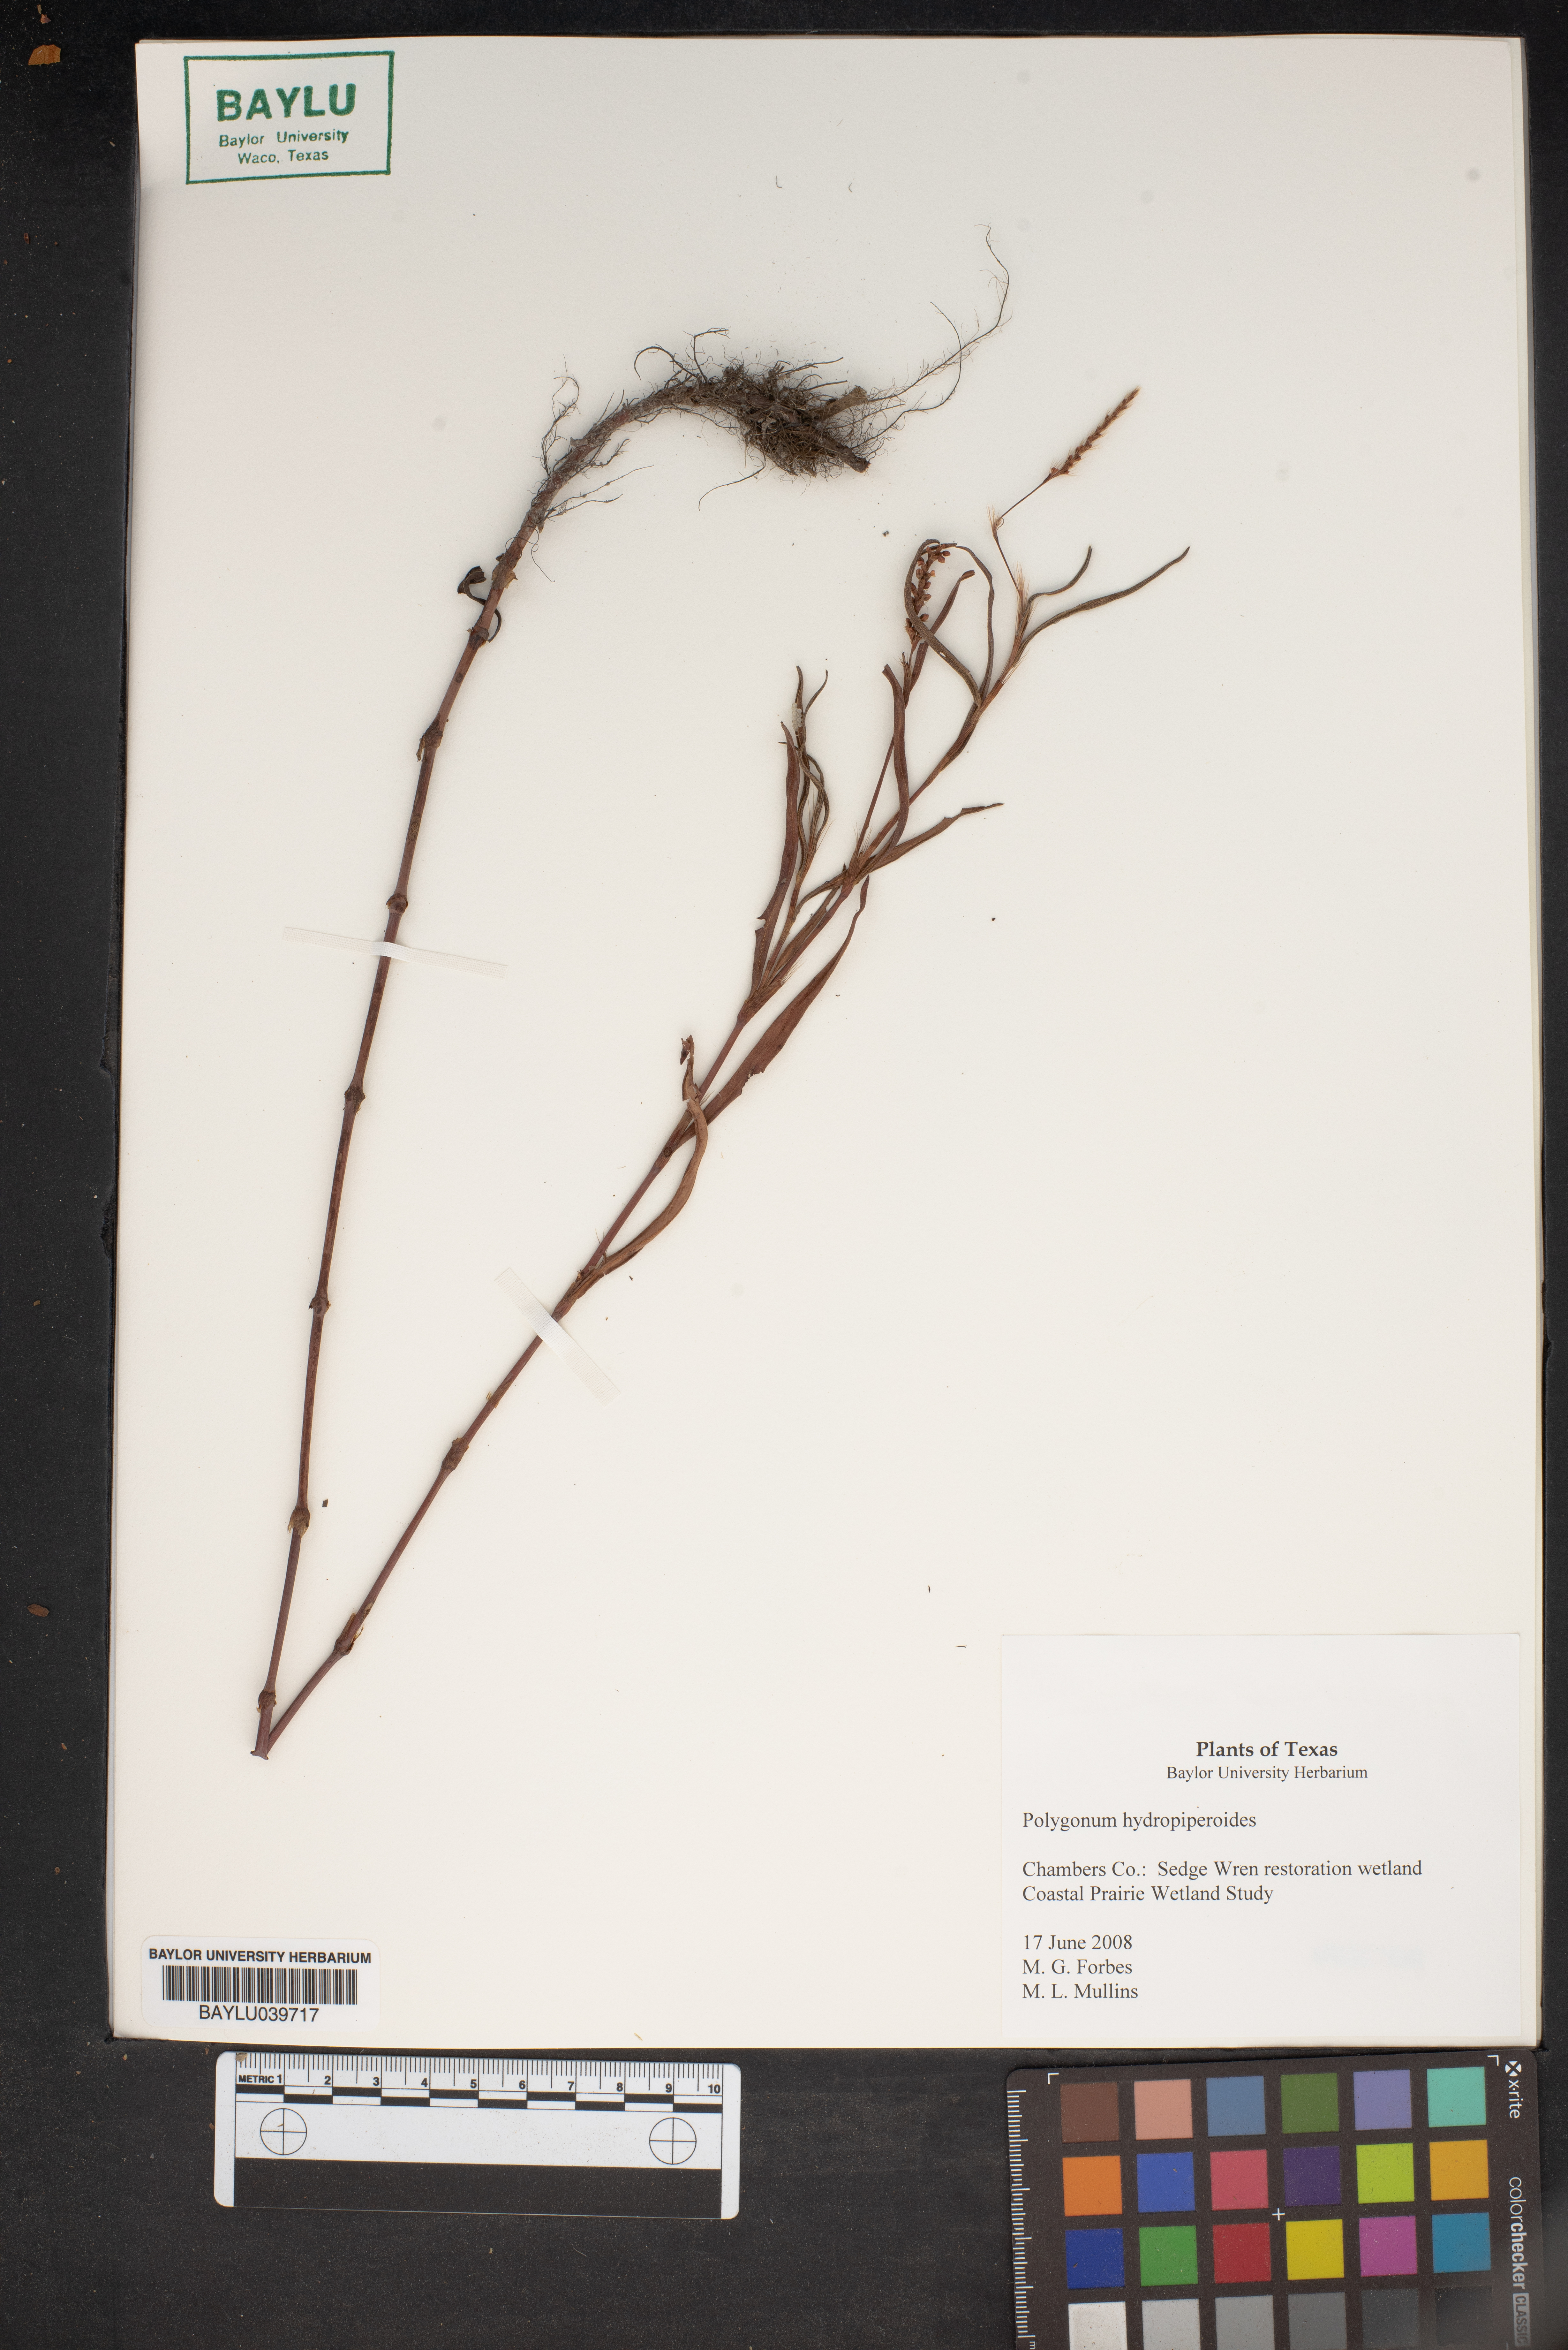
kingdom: Plantae
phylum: Tracheophyta
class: Magnoliopsida
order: Caryophyllales
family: Polygonaceae
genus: Persicaria
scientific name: Persicaria hydropiperoides
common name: Swamp smartweed
